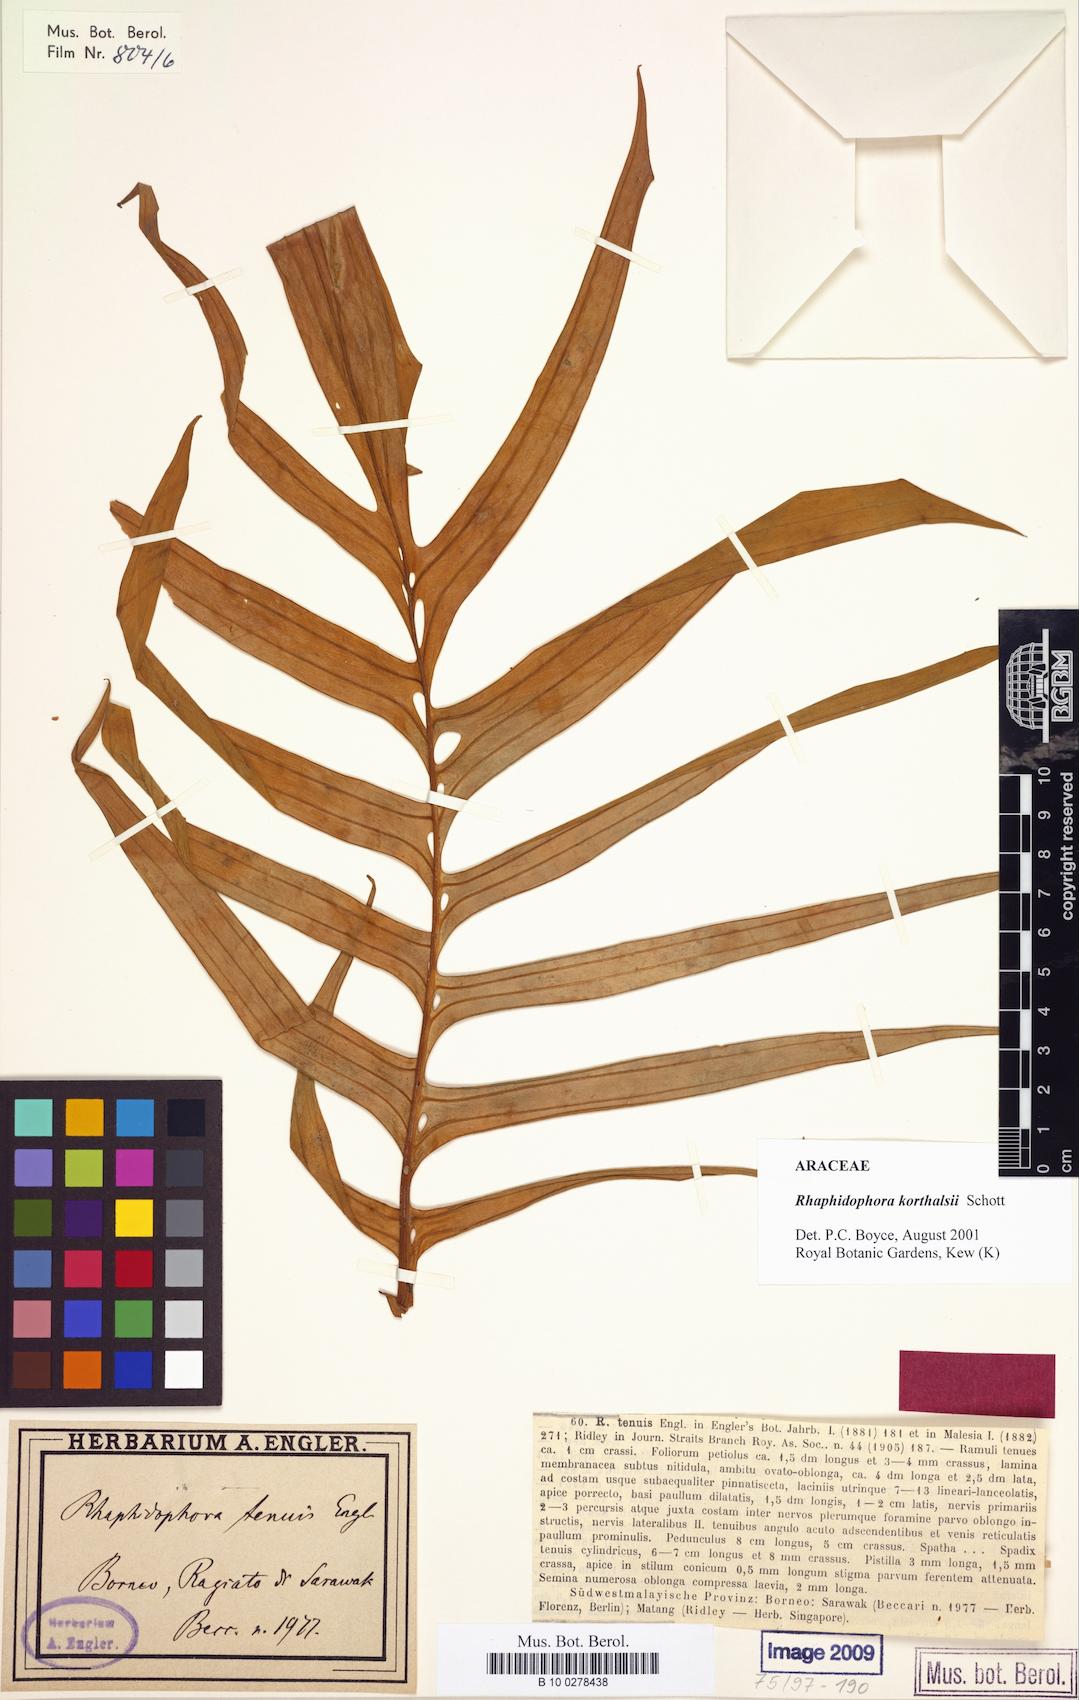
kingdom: Plantae
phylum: Tracheophyta
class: Liliopsida
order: Alismatales
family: Araceae
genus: Rhaphidophora
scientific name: Rhaphidophora korthalsii
